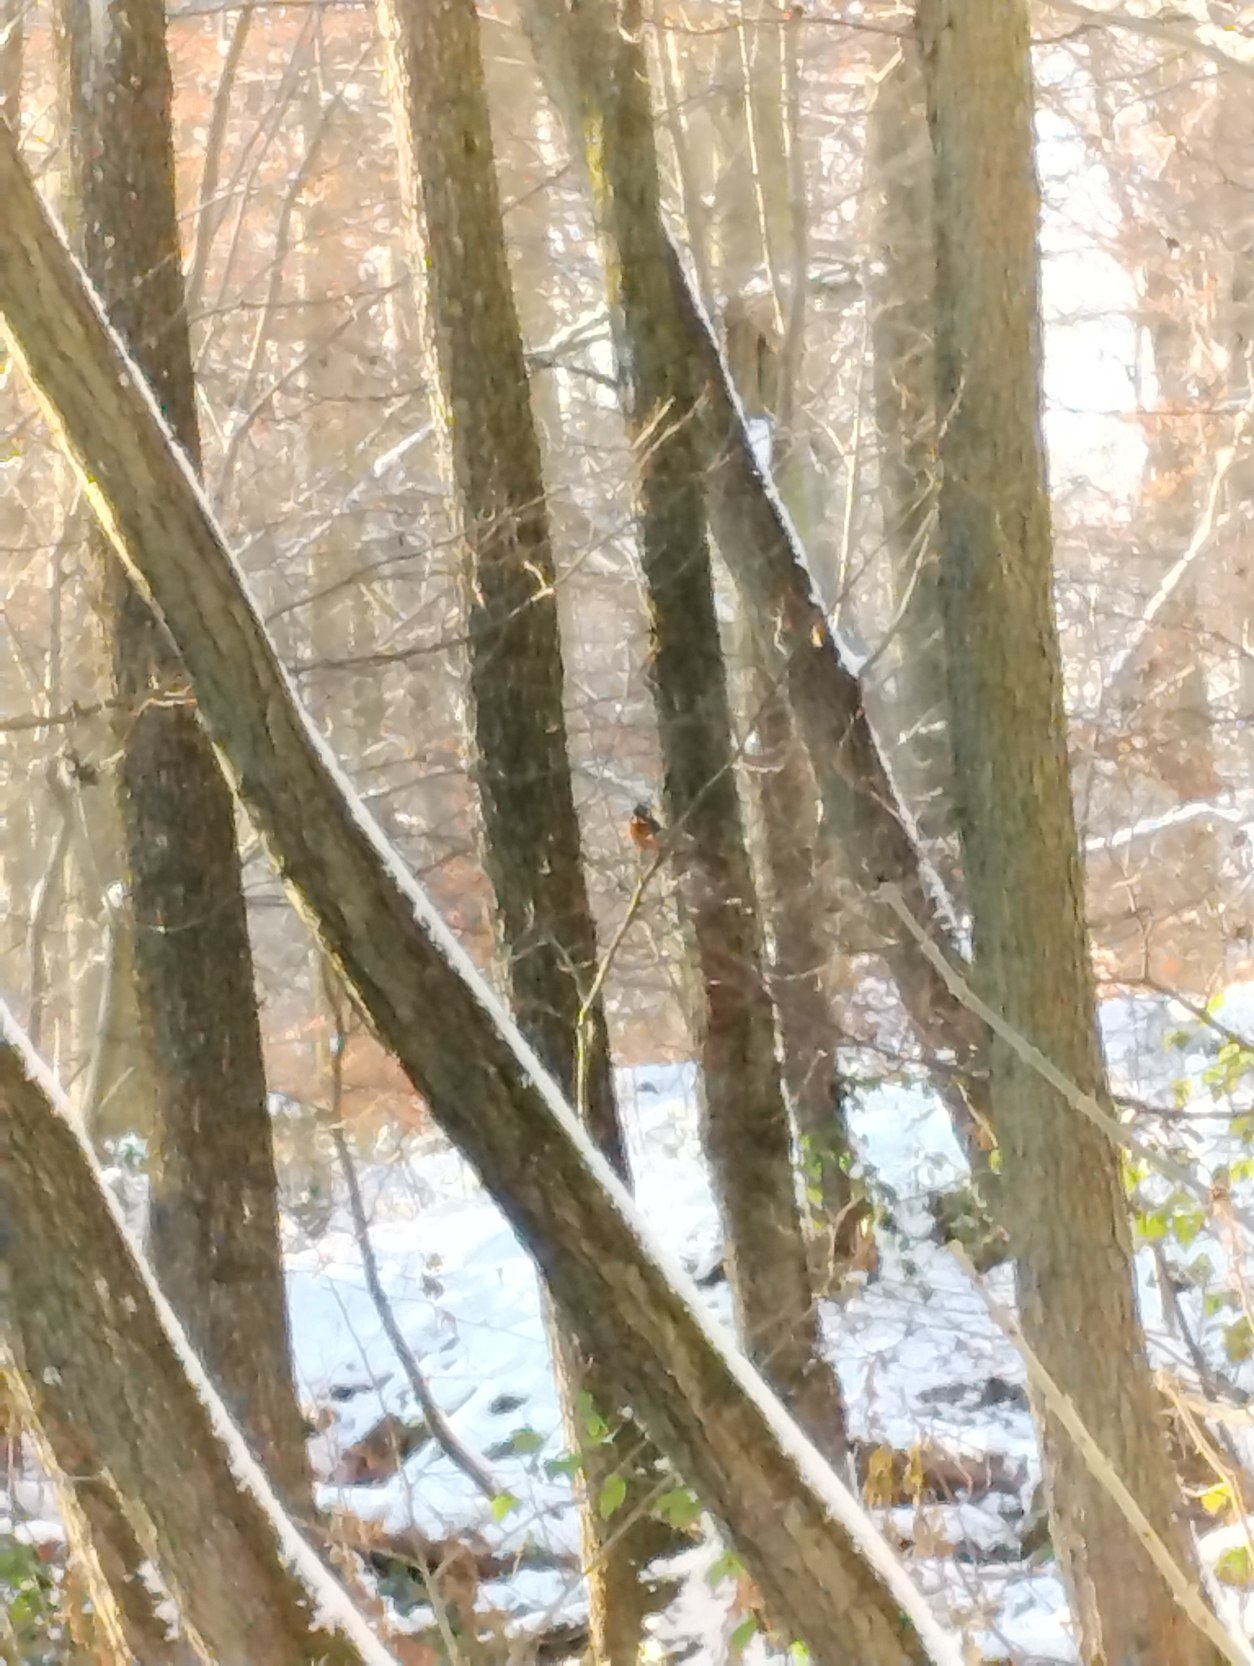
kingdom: Animalia
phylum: Chordata
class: Aves
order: Coraciiformes
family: Alcedinidae
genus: Alcedo
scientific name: Alcedo atthis
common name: Isfugl
